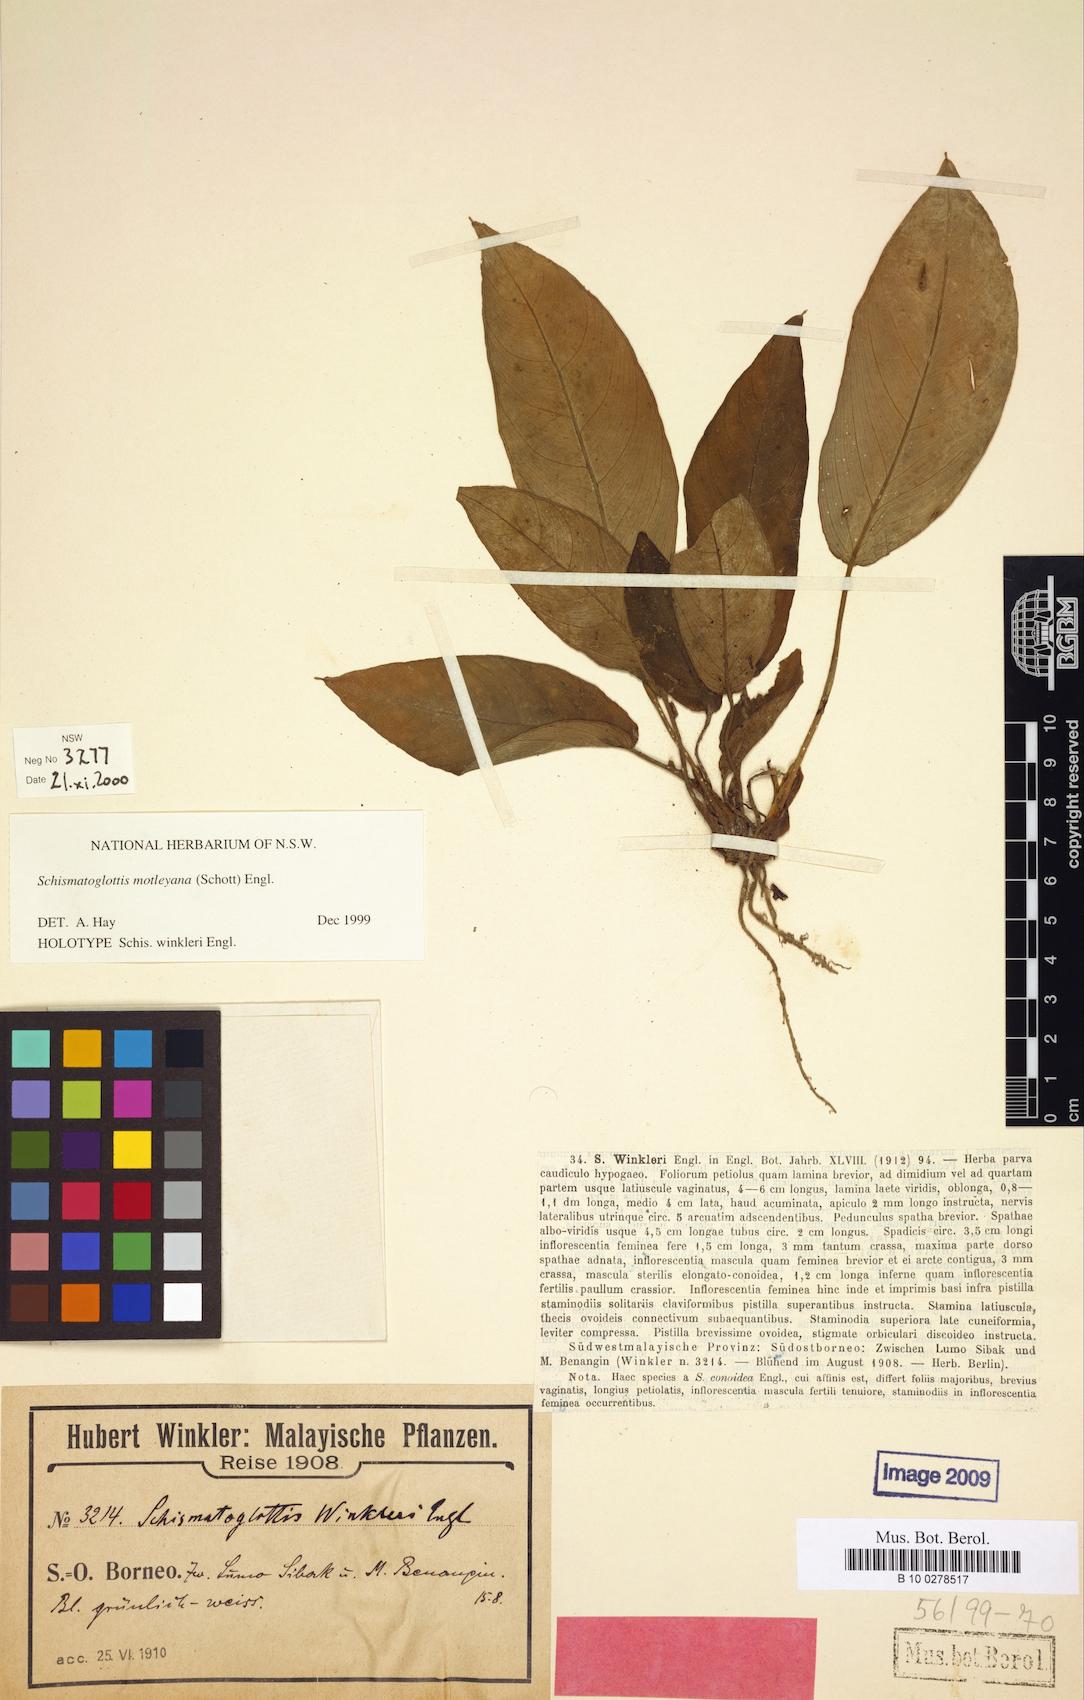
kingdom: Plantae
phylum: Tracheophyta
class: Liliopsida
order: Alismatales
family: Araceae
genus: Schismatoglottis
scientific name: Schismatoglottis motleyana
